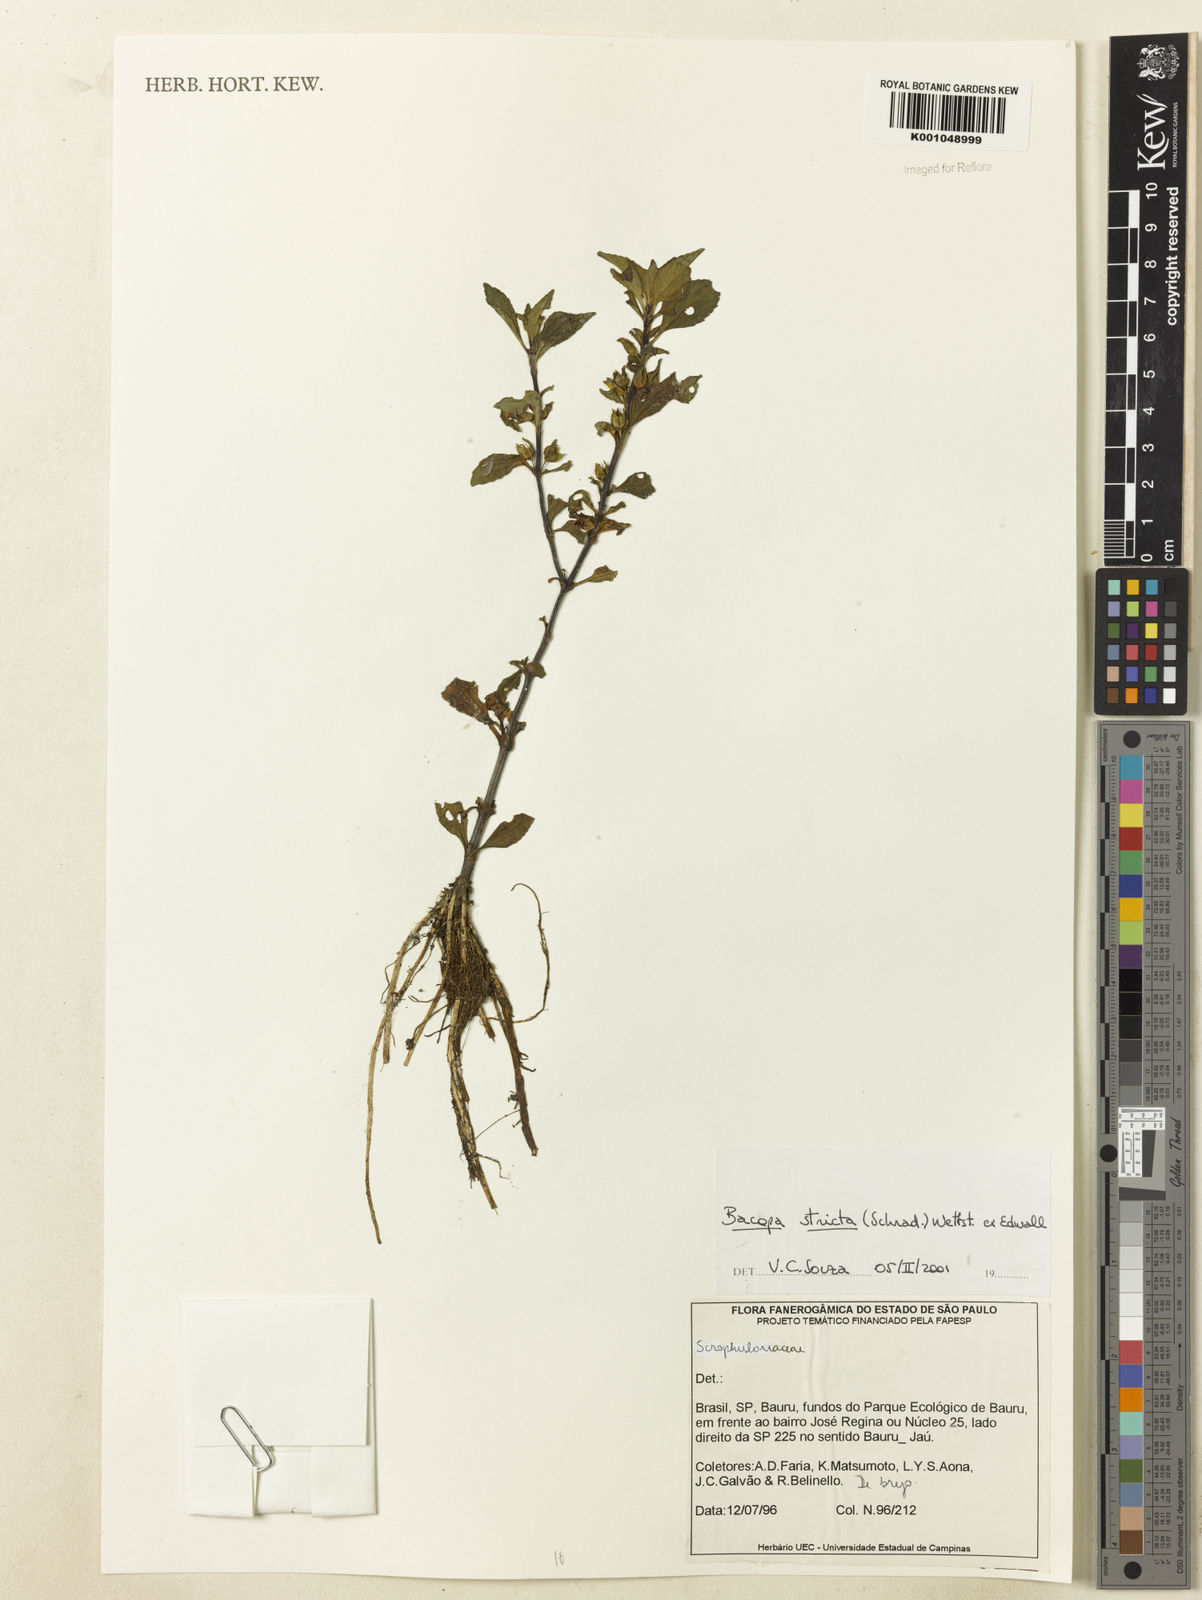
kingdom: Plantae
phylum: Tracheophyta
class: Magnoliopsida
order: Lamiales
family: Plantaginaceae
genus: Bacopa
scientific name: Bacopa stricta
